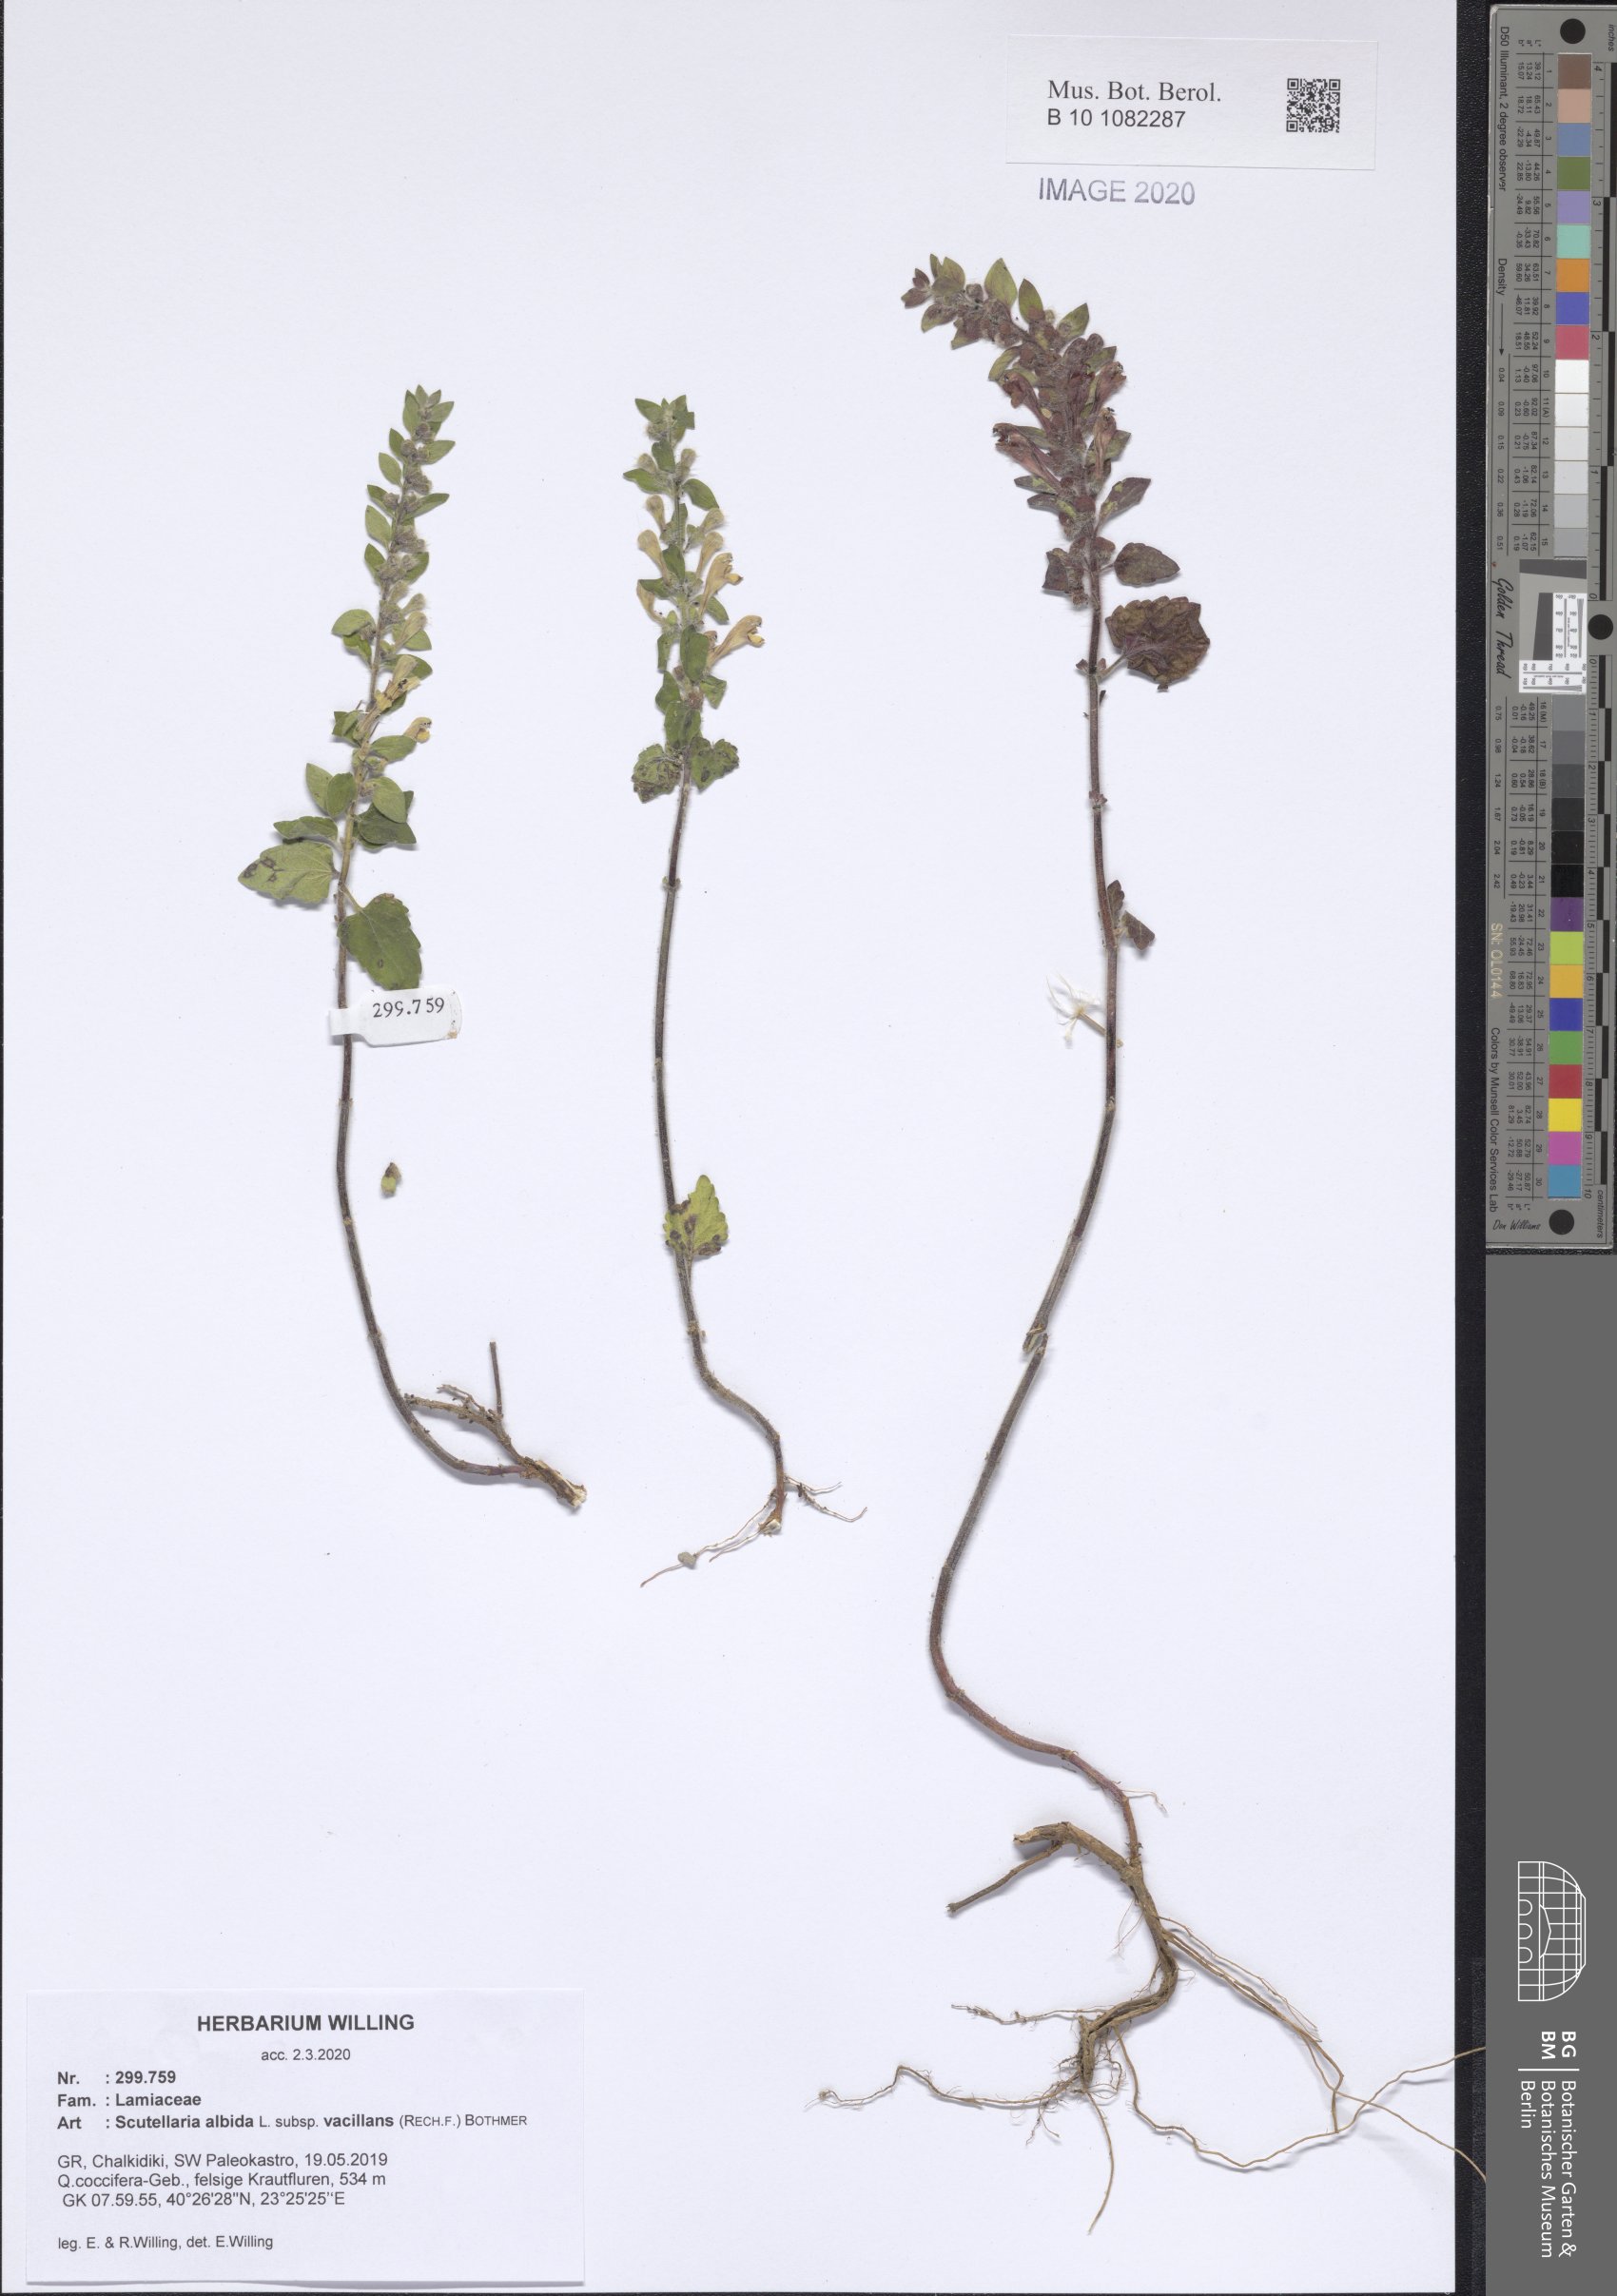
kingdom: Plantae
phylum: Tracheophyta
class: Magnoliopsida
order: Lamiales
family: Lamiaceae
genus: Scutellaria
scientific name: Scutellaria albida
